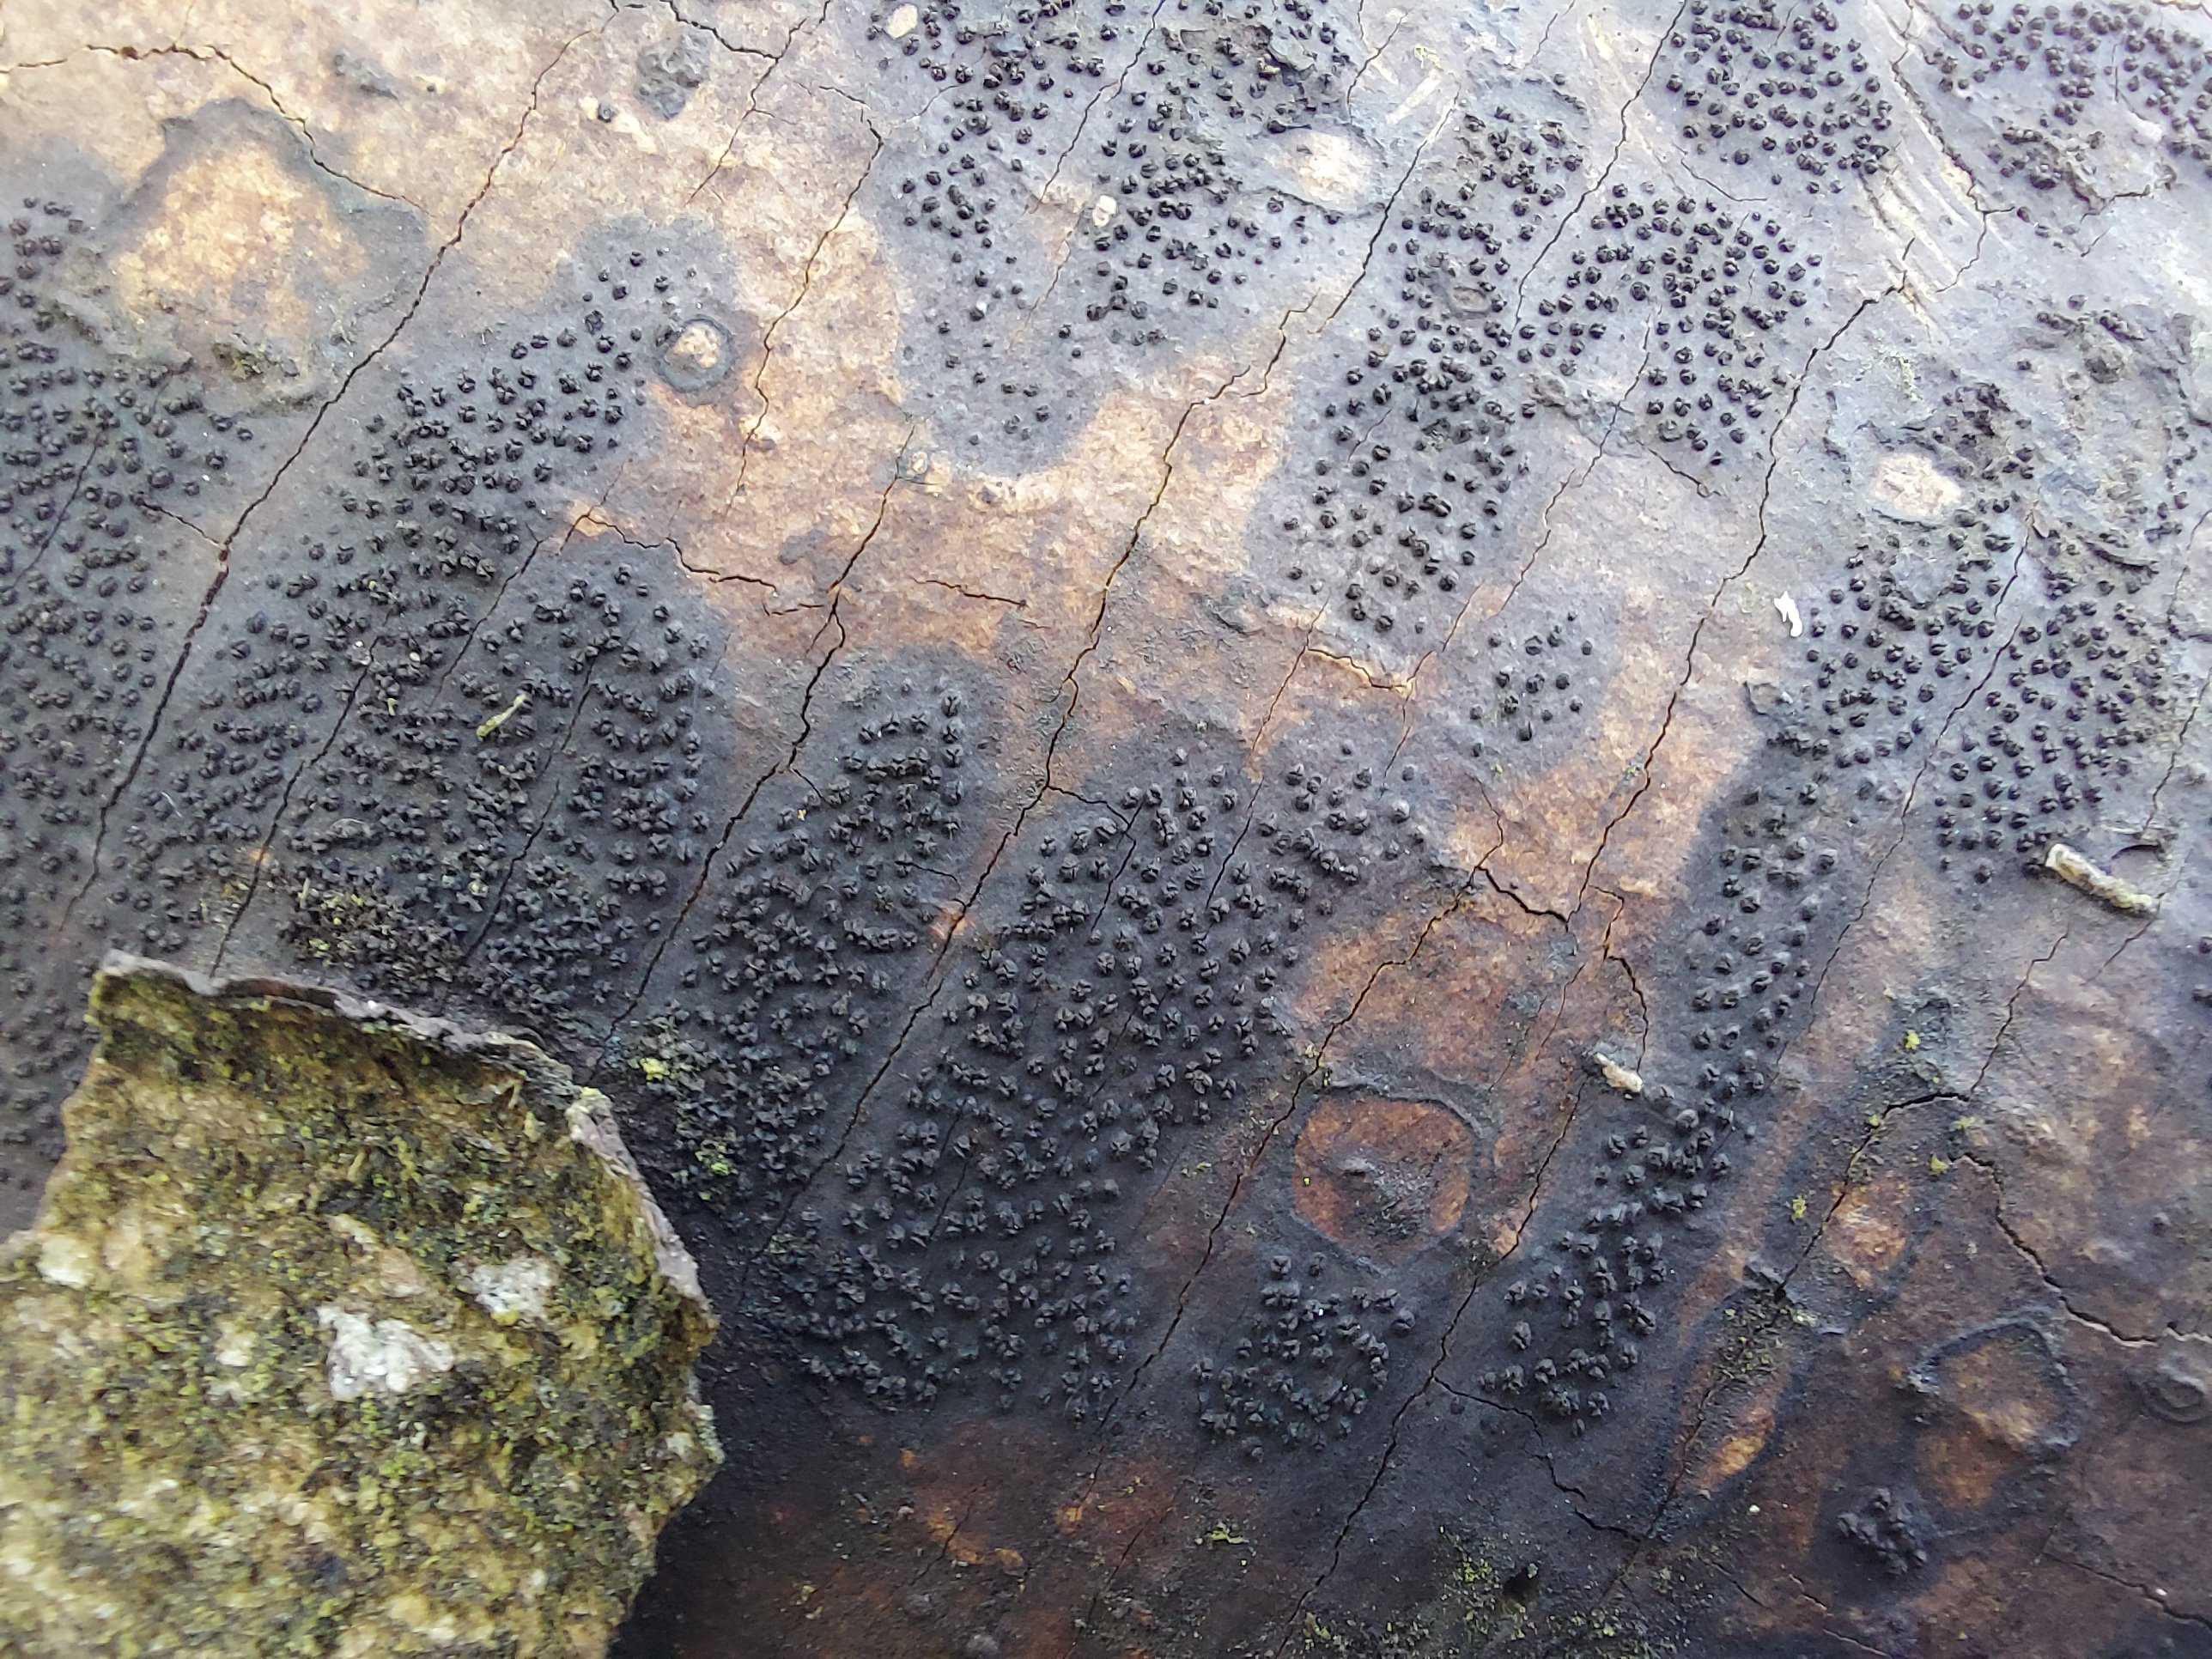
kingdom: Fungi
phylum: Ascomycota
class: Sordariomycetes
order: Xylariales
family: Diatrypaceae
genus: Eutypa
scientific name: Eutypa spinosa
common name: grov kulskorpe
